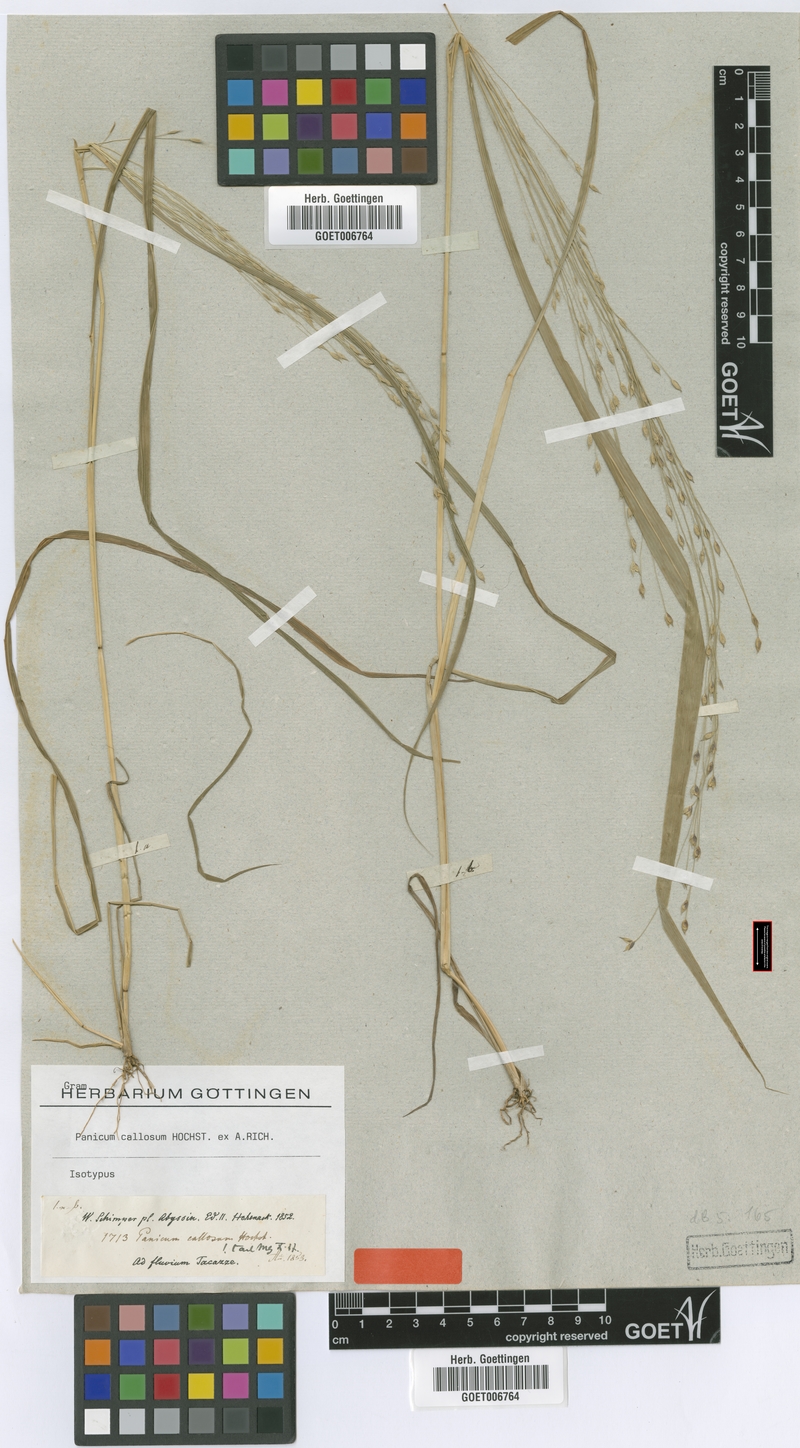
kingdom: Plantae
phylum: Tracheophyta
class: Liliopsida
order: Poales
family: Poaceae
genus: Panicum
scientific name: Panicum callosum
